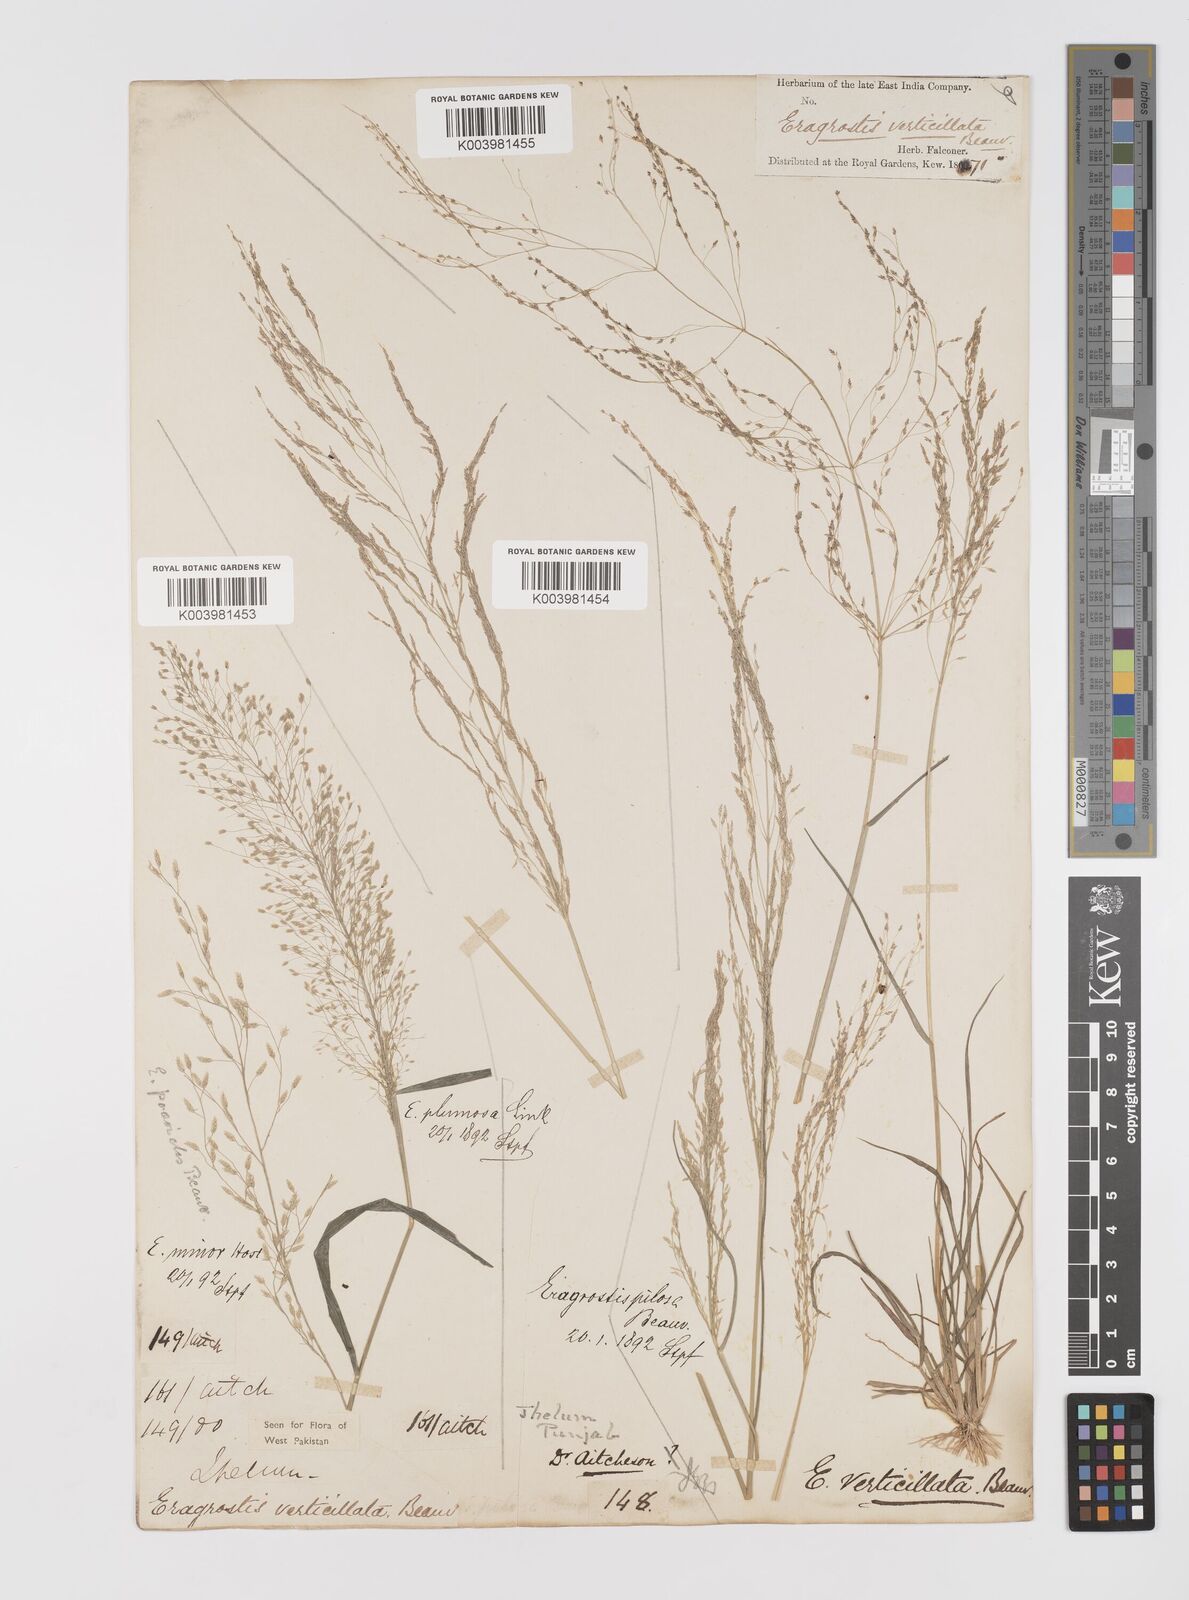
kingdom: Plantae
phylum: Tracheophyta
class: Liliopsida
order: Poales
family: Poaceae
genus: Eragrostis
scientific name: Eragrostis pilosa
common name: Indian lovegrass
